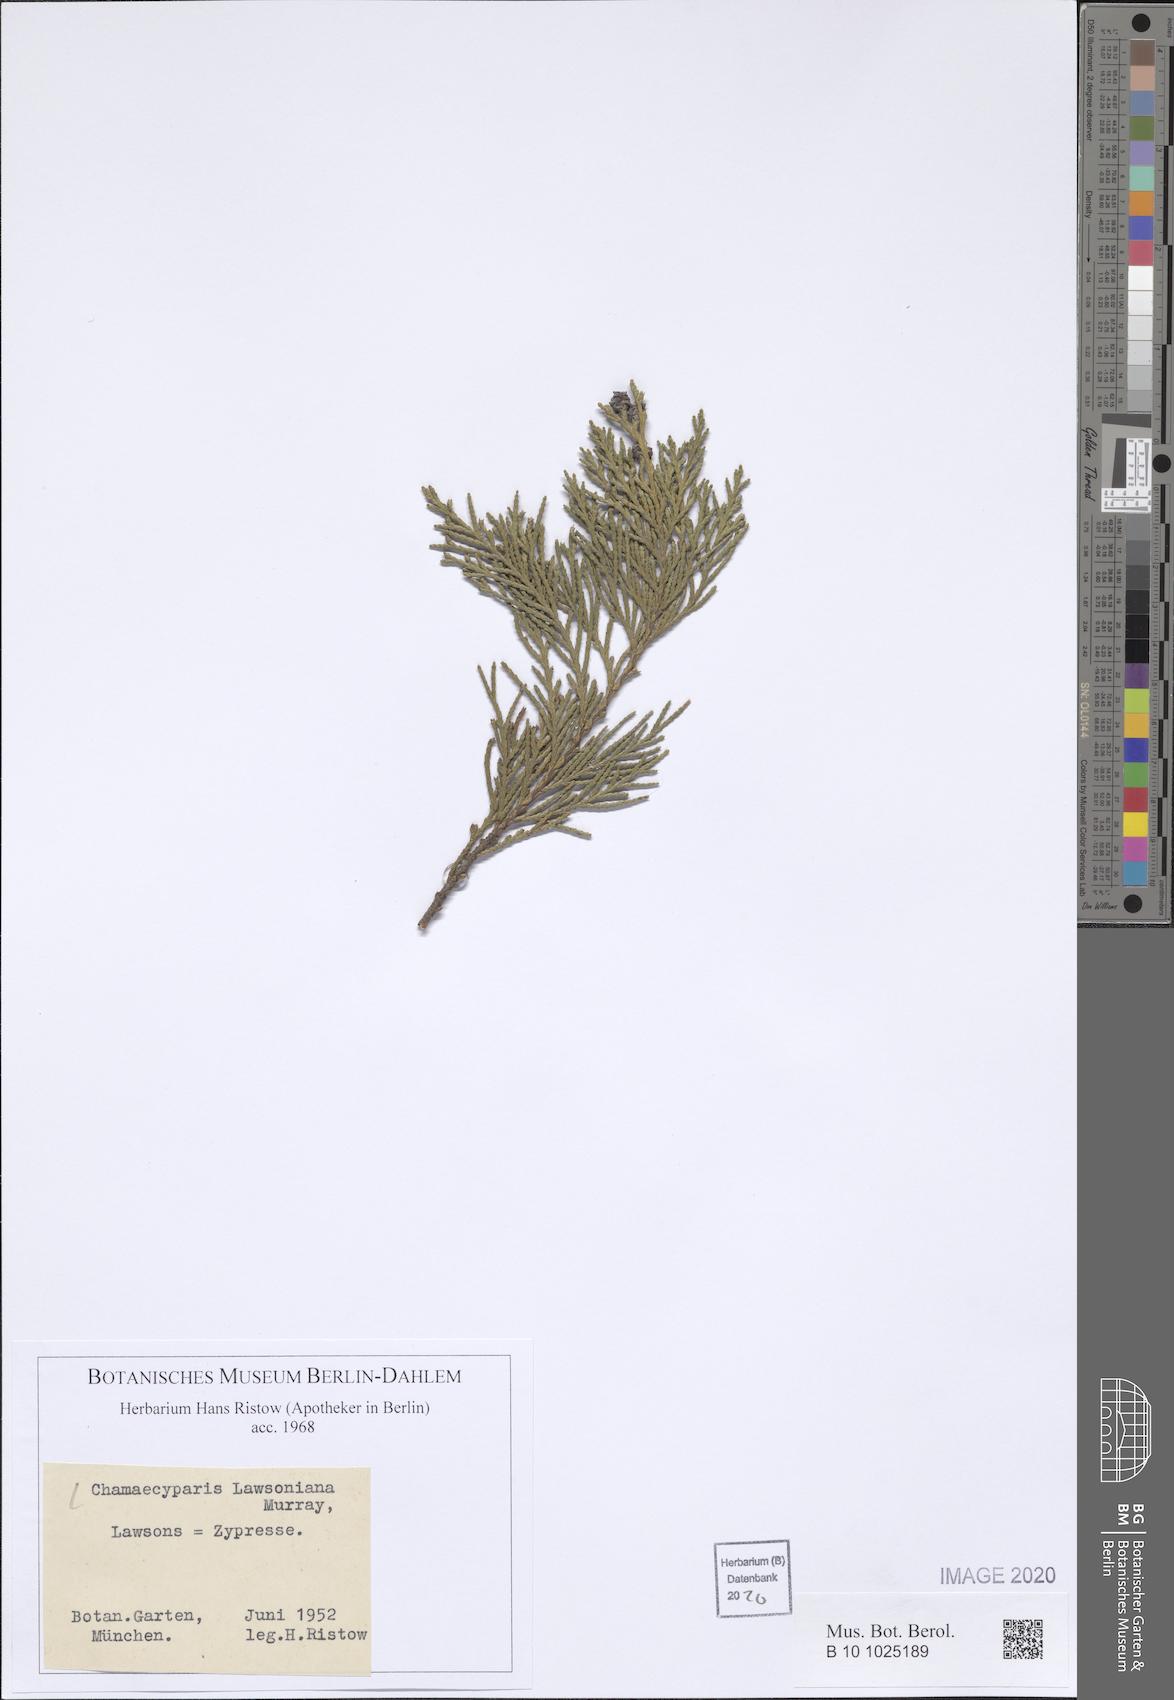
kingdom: Plantae
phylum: Tracheophyta
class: Pinopsida
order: Pinales
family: Cupressaceae
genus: Chamaecyparis
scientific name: Chamaecyparis lawsoniana
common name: Lawson's cypress
